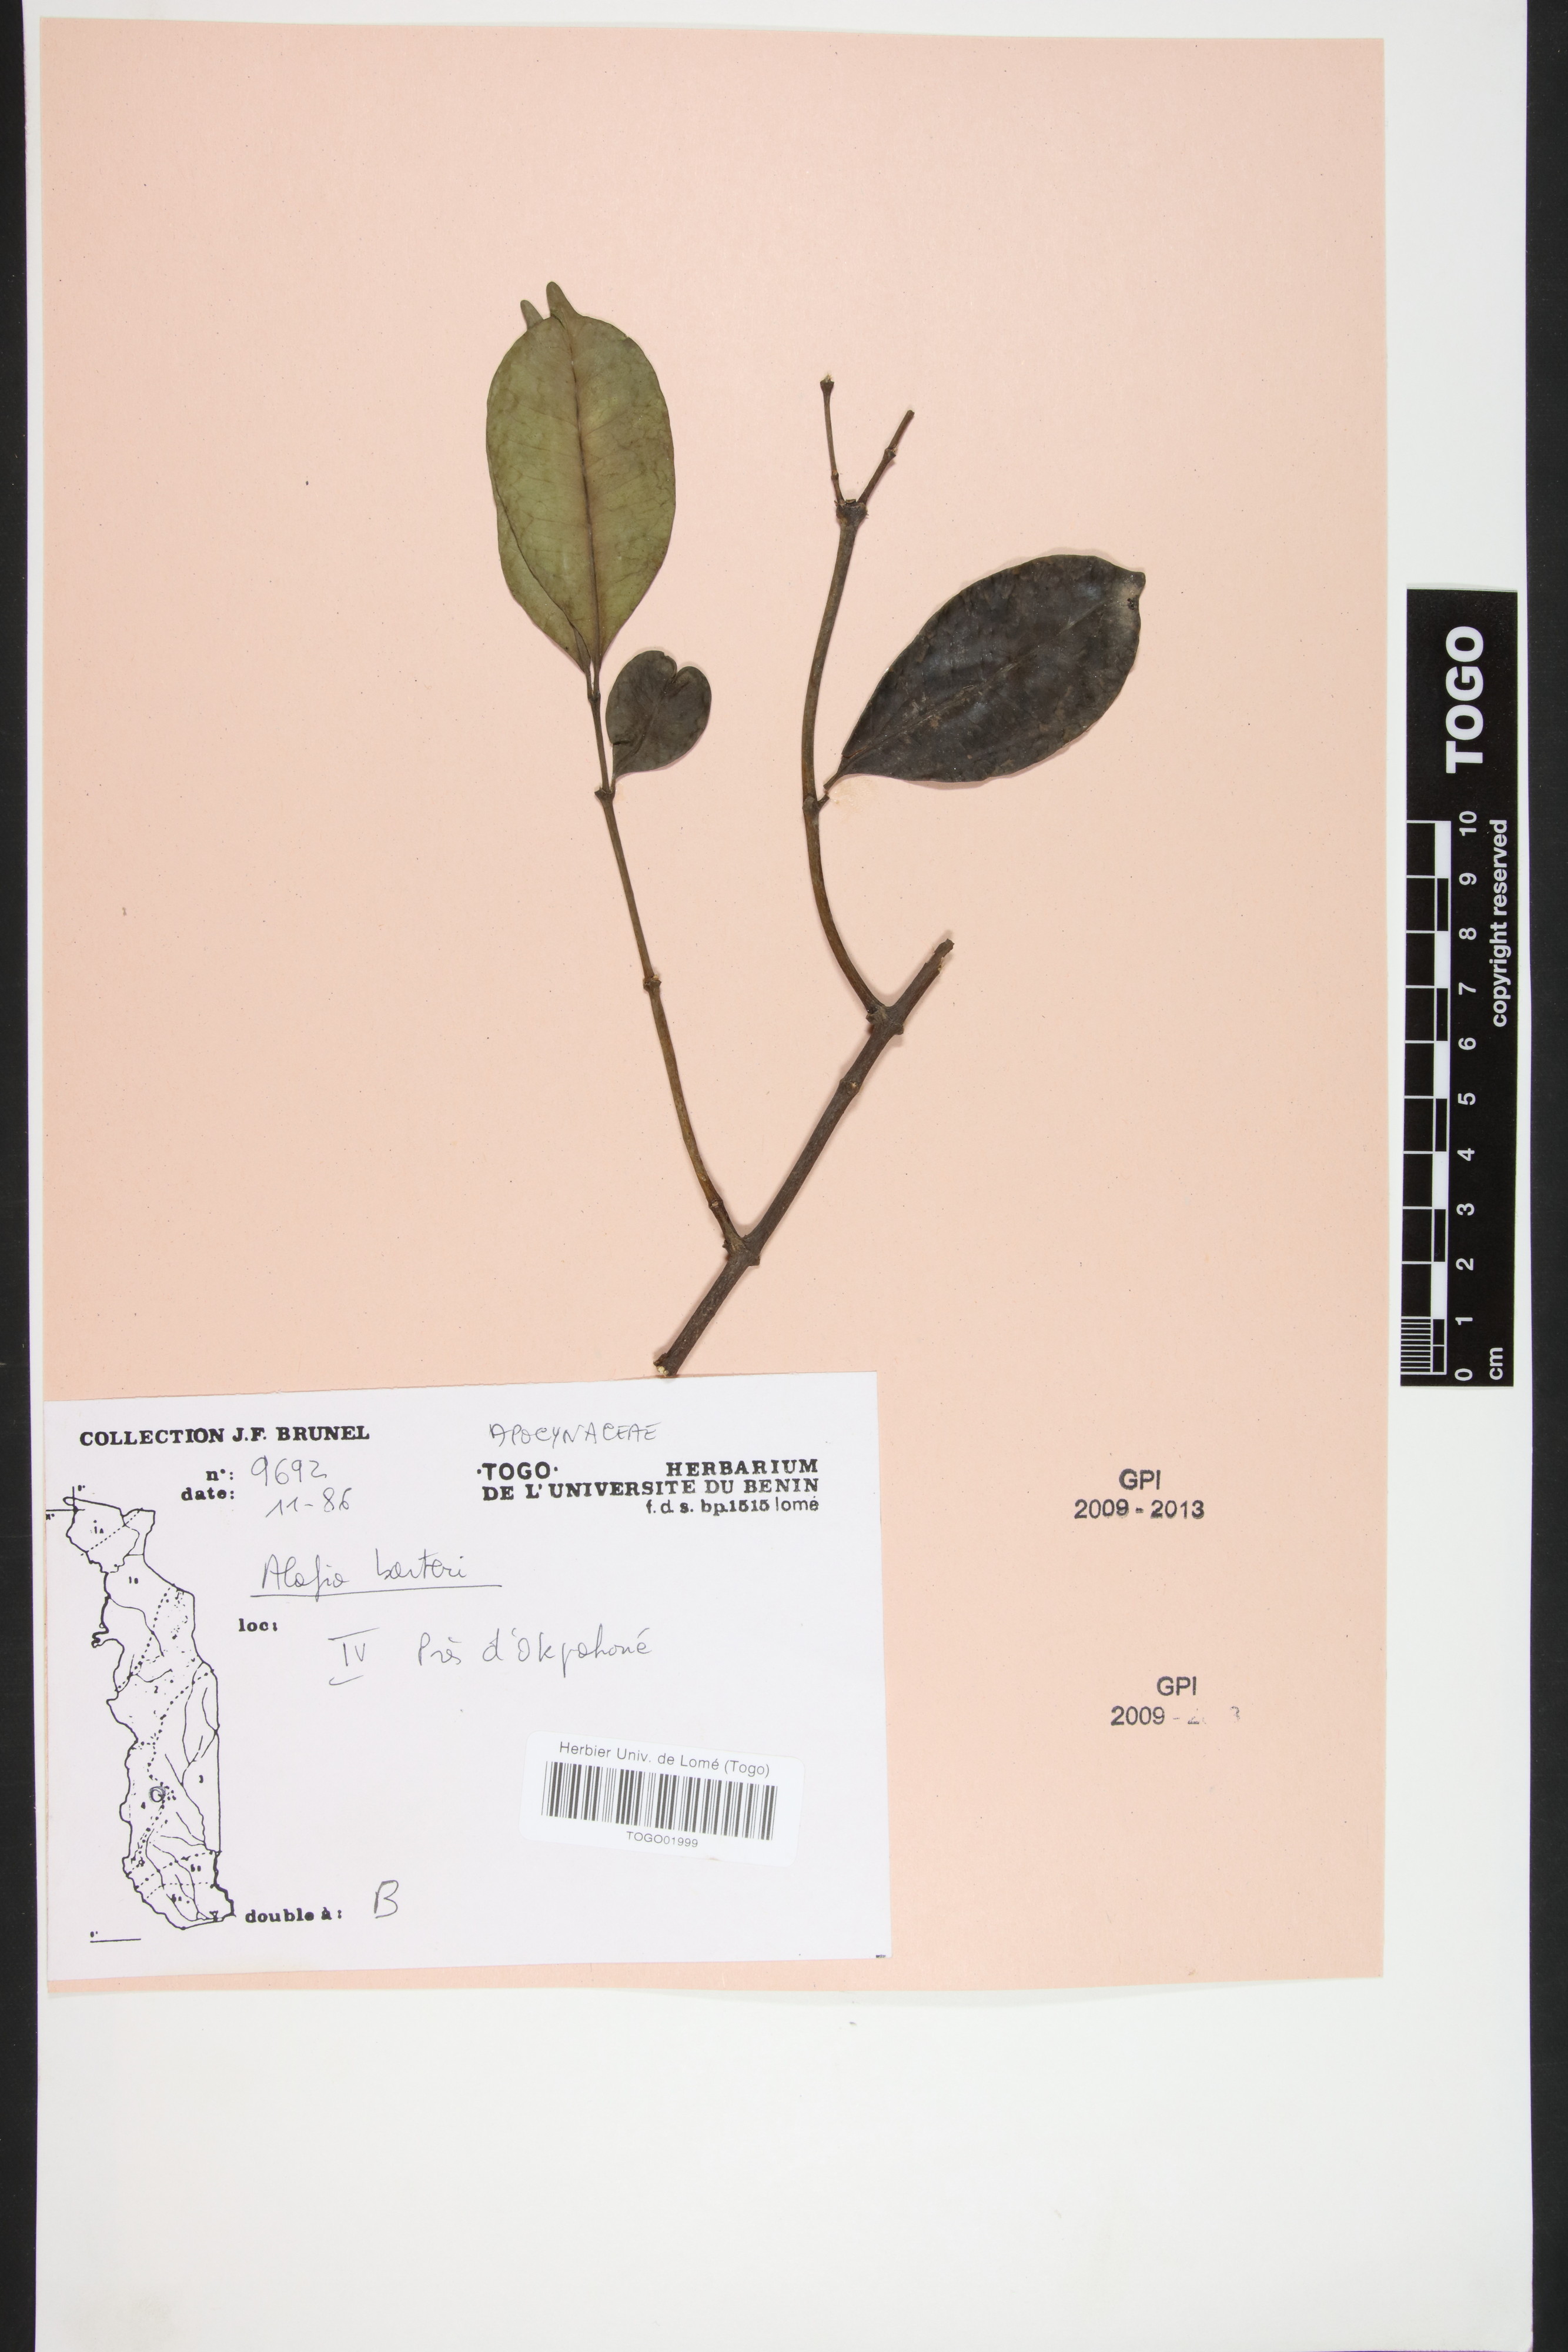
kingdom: Plantae
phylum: Tracheophyta
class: Magnoliopsida
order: Gentianales
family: Apocynaceae
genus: Alafia
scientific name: Alafia barteri
